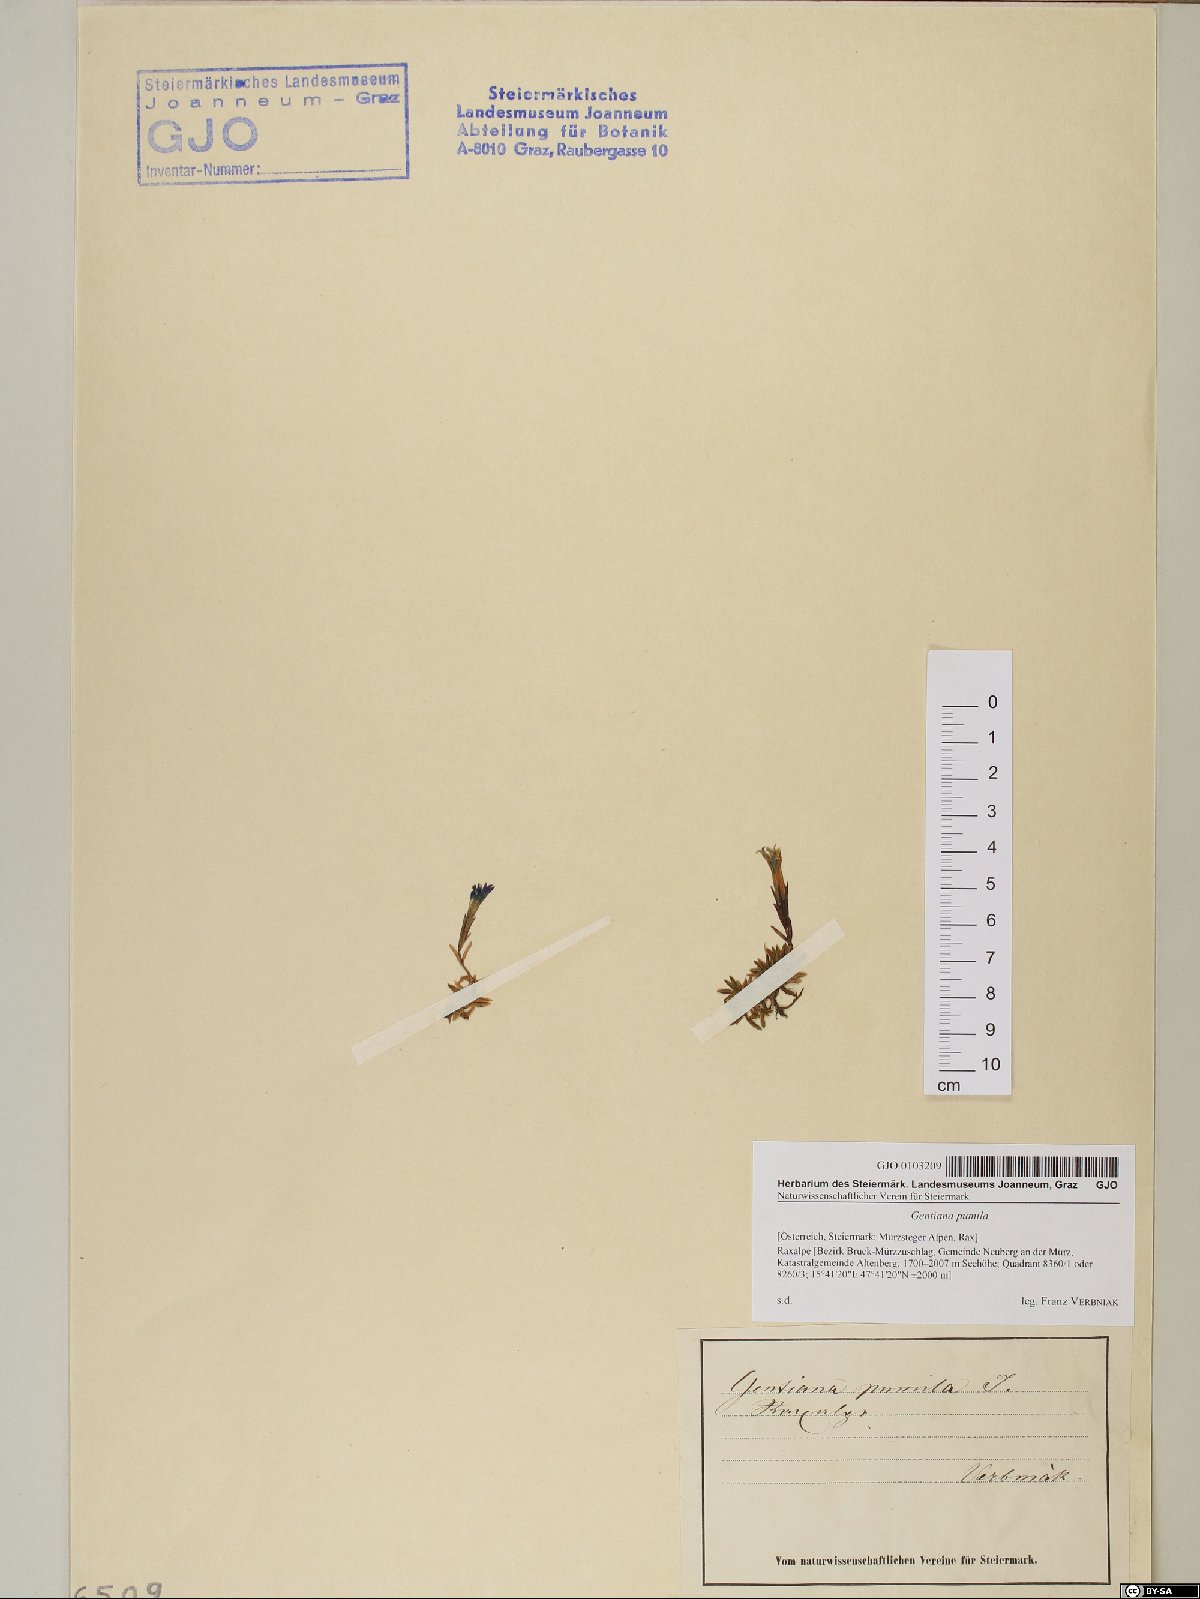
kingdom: Plantae
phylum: Tracheophyta
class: Magnoliopsida
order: Gentianales
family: Gentianaceae
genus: Gentiana
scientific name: Gentiana pumila
